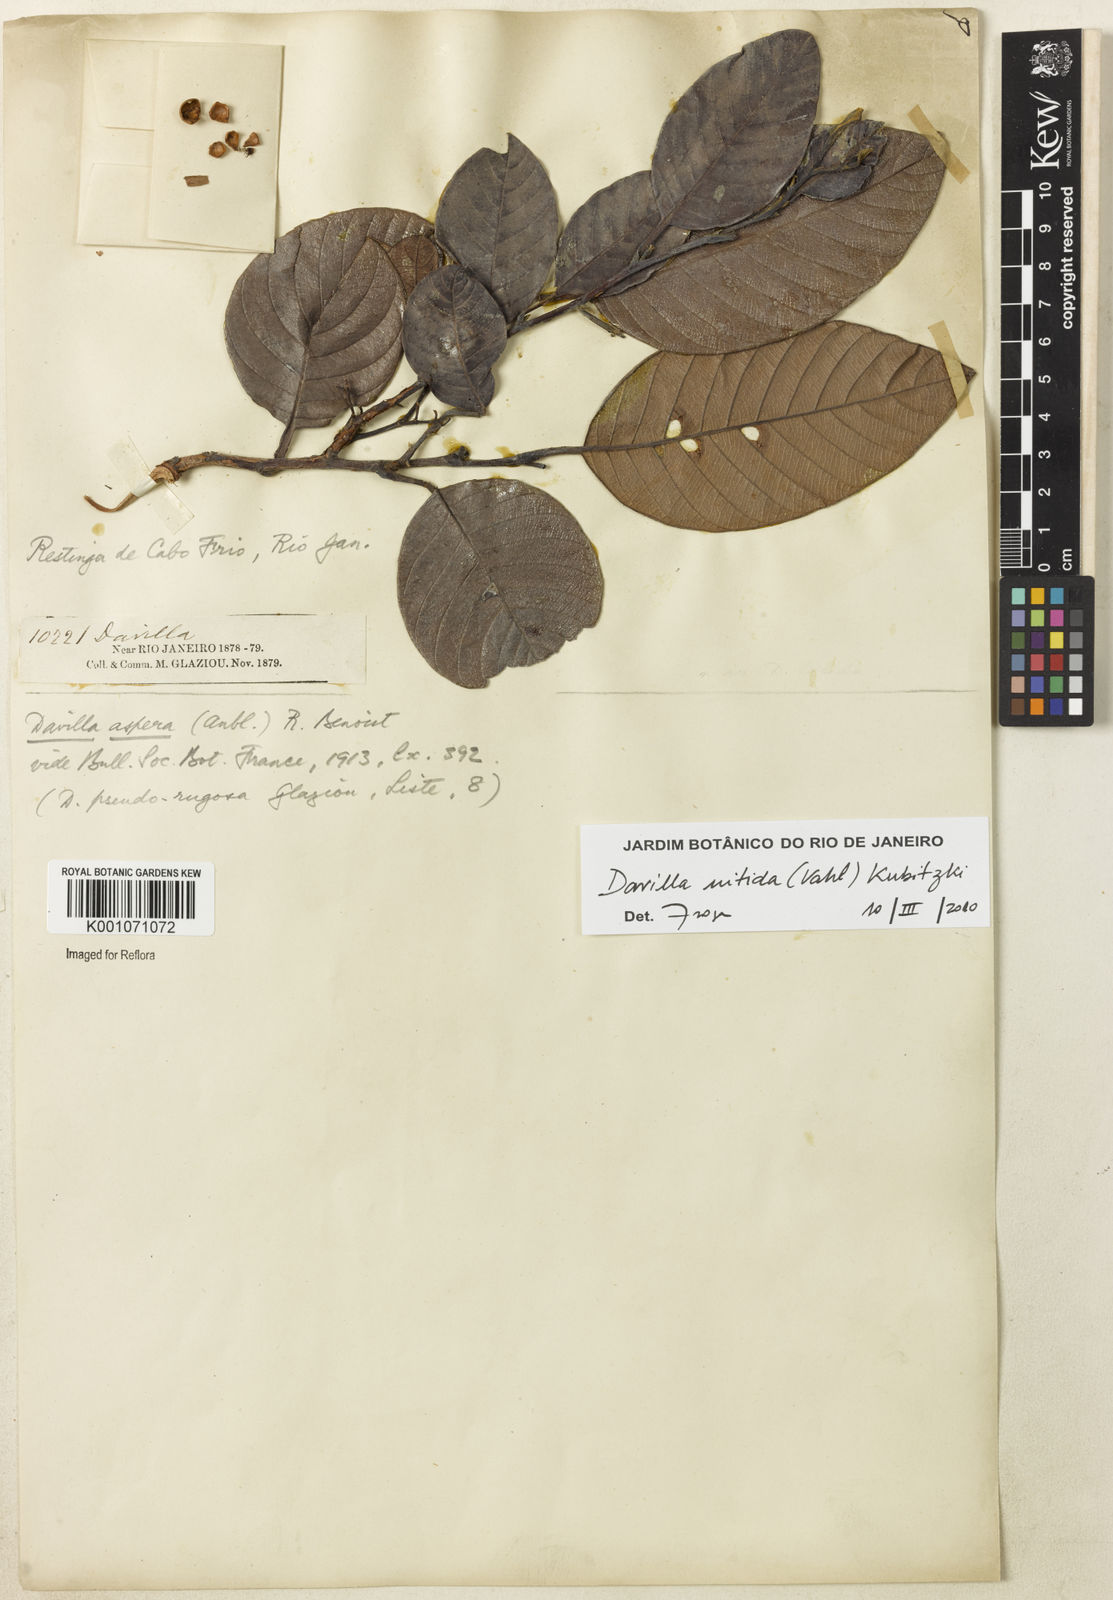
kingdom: Plantae
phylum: Tracheophyta
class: Magnoliopsida
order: Dilleniales
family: Dilleniaceae
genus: Davilla
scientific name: Davilla kunthii
